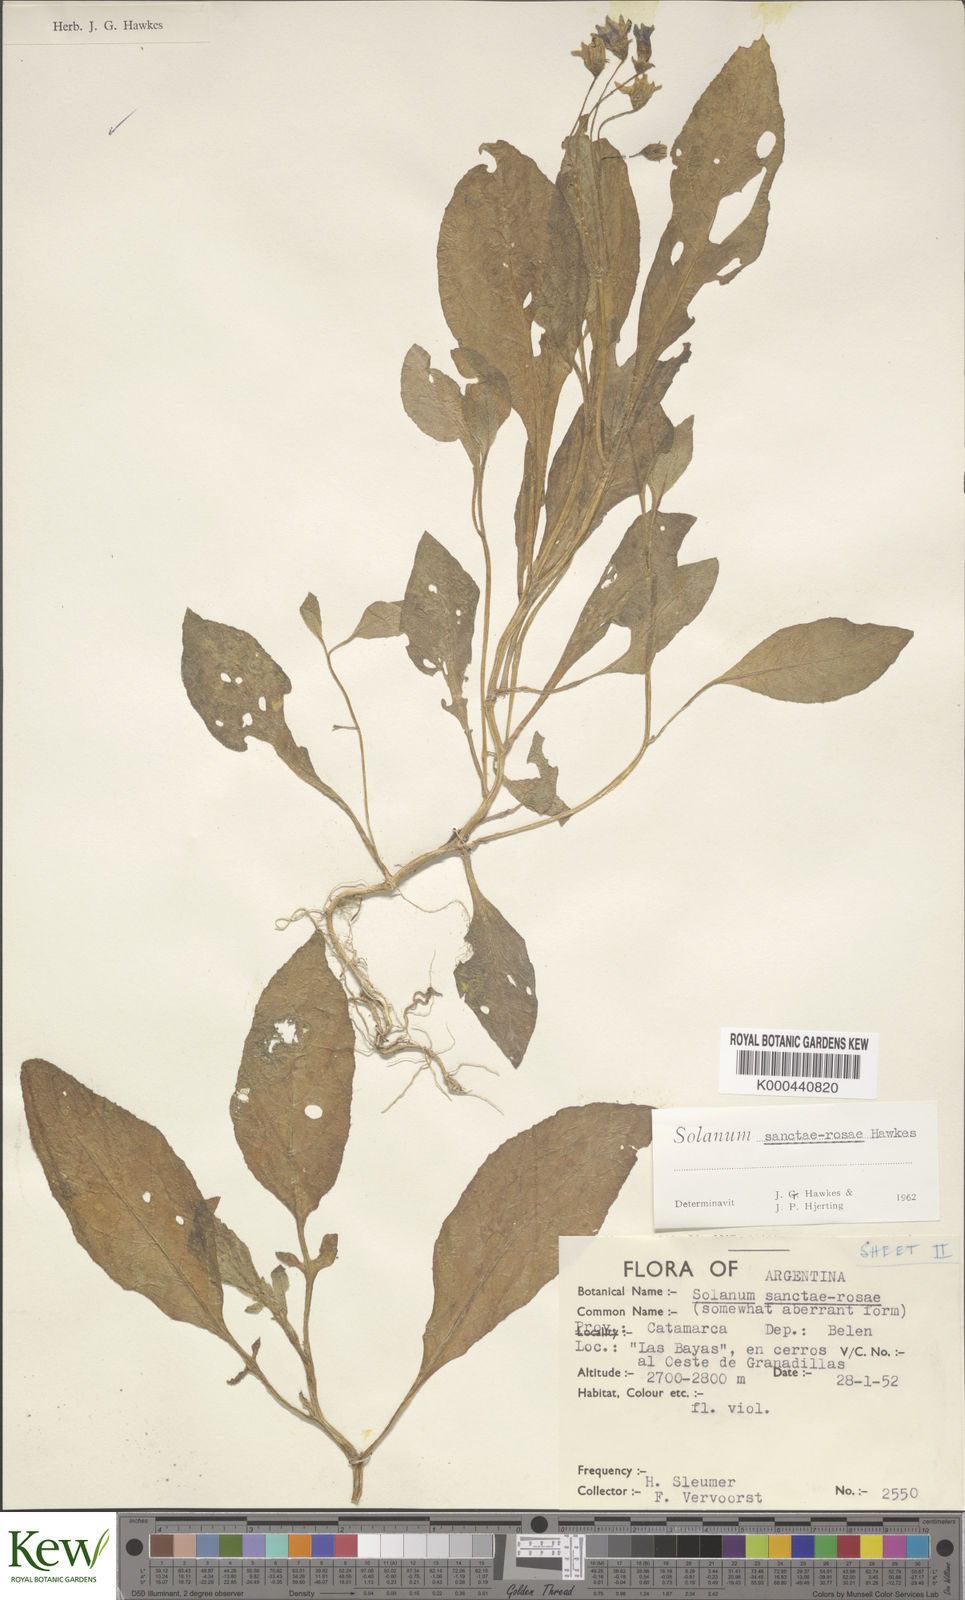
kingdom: Plantae
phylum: Tracheophyta
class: Magnoliopsida
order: Solanales
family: Solanaceae
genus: Solanum
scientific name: Solanum boliviense
